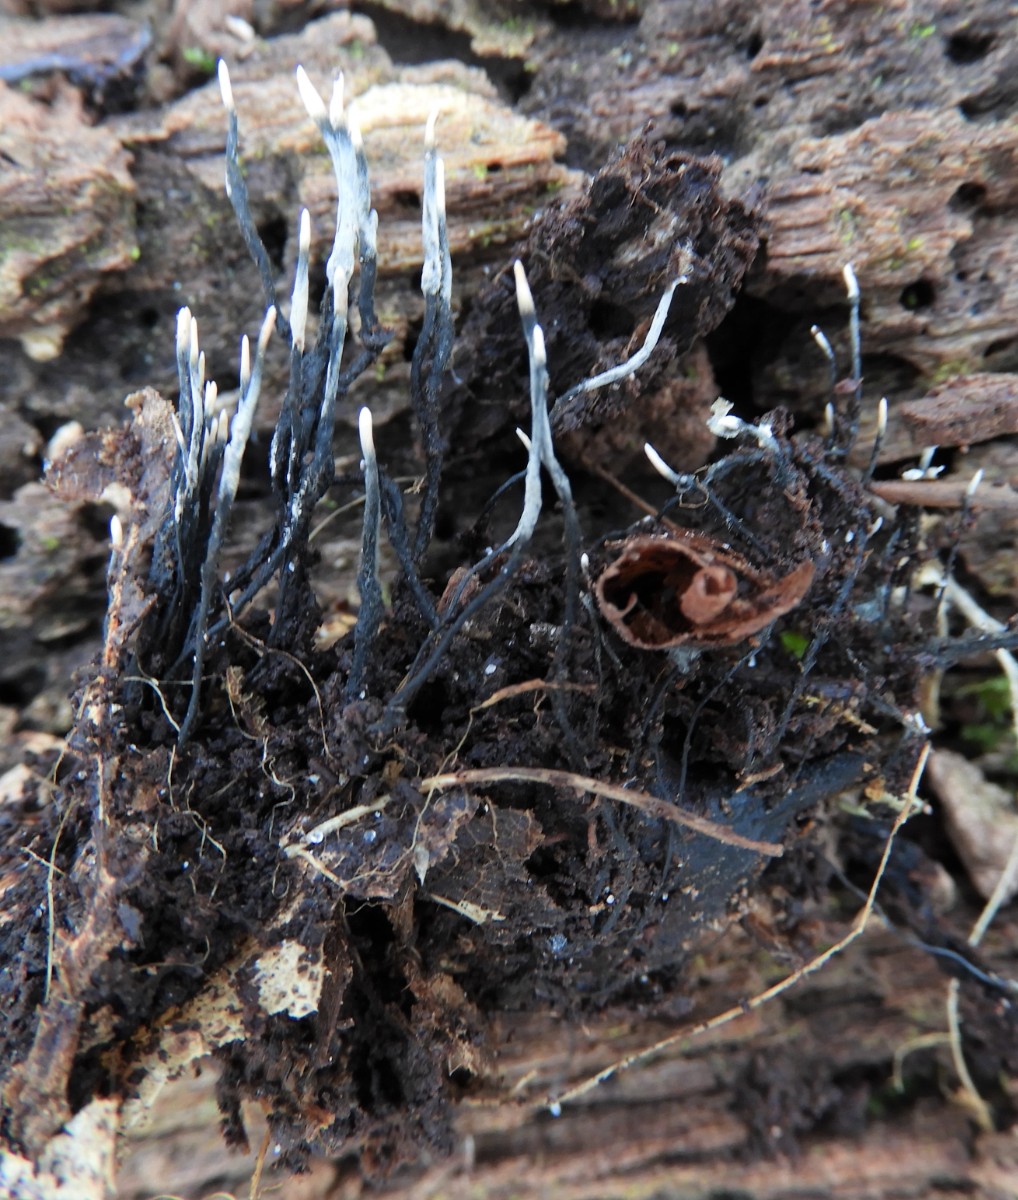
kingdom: Fungi
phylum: Ascomycota
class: Sordariomycetes
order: Xylariales
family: Xylariaceae
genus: Xylaria
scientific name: Xylaria carpophila
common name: bogskål-stødsvamp
